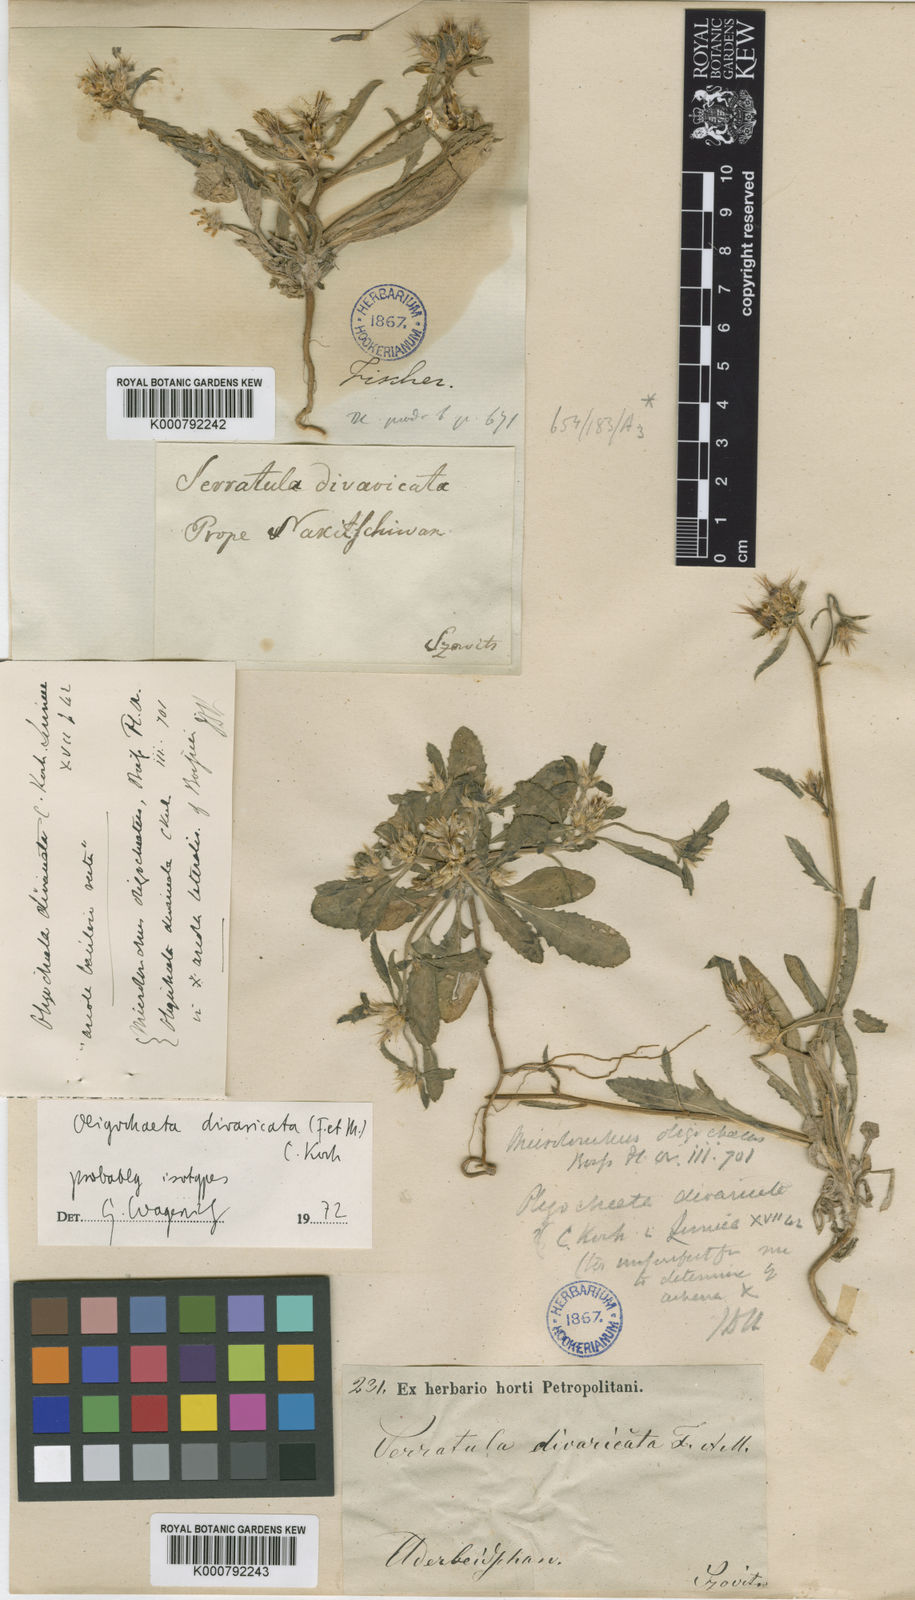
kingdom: Plantae
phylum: Tracheophyta
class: Magnoliopsida
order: Asterales
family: Asteraceae
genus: Oligochaeta
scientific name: Oligochaeta divaricata
